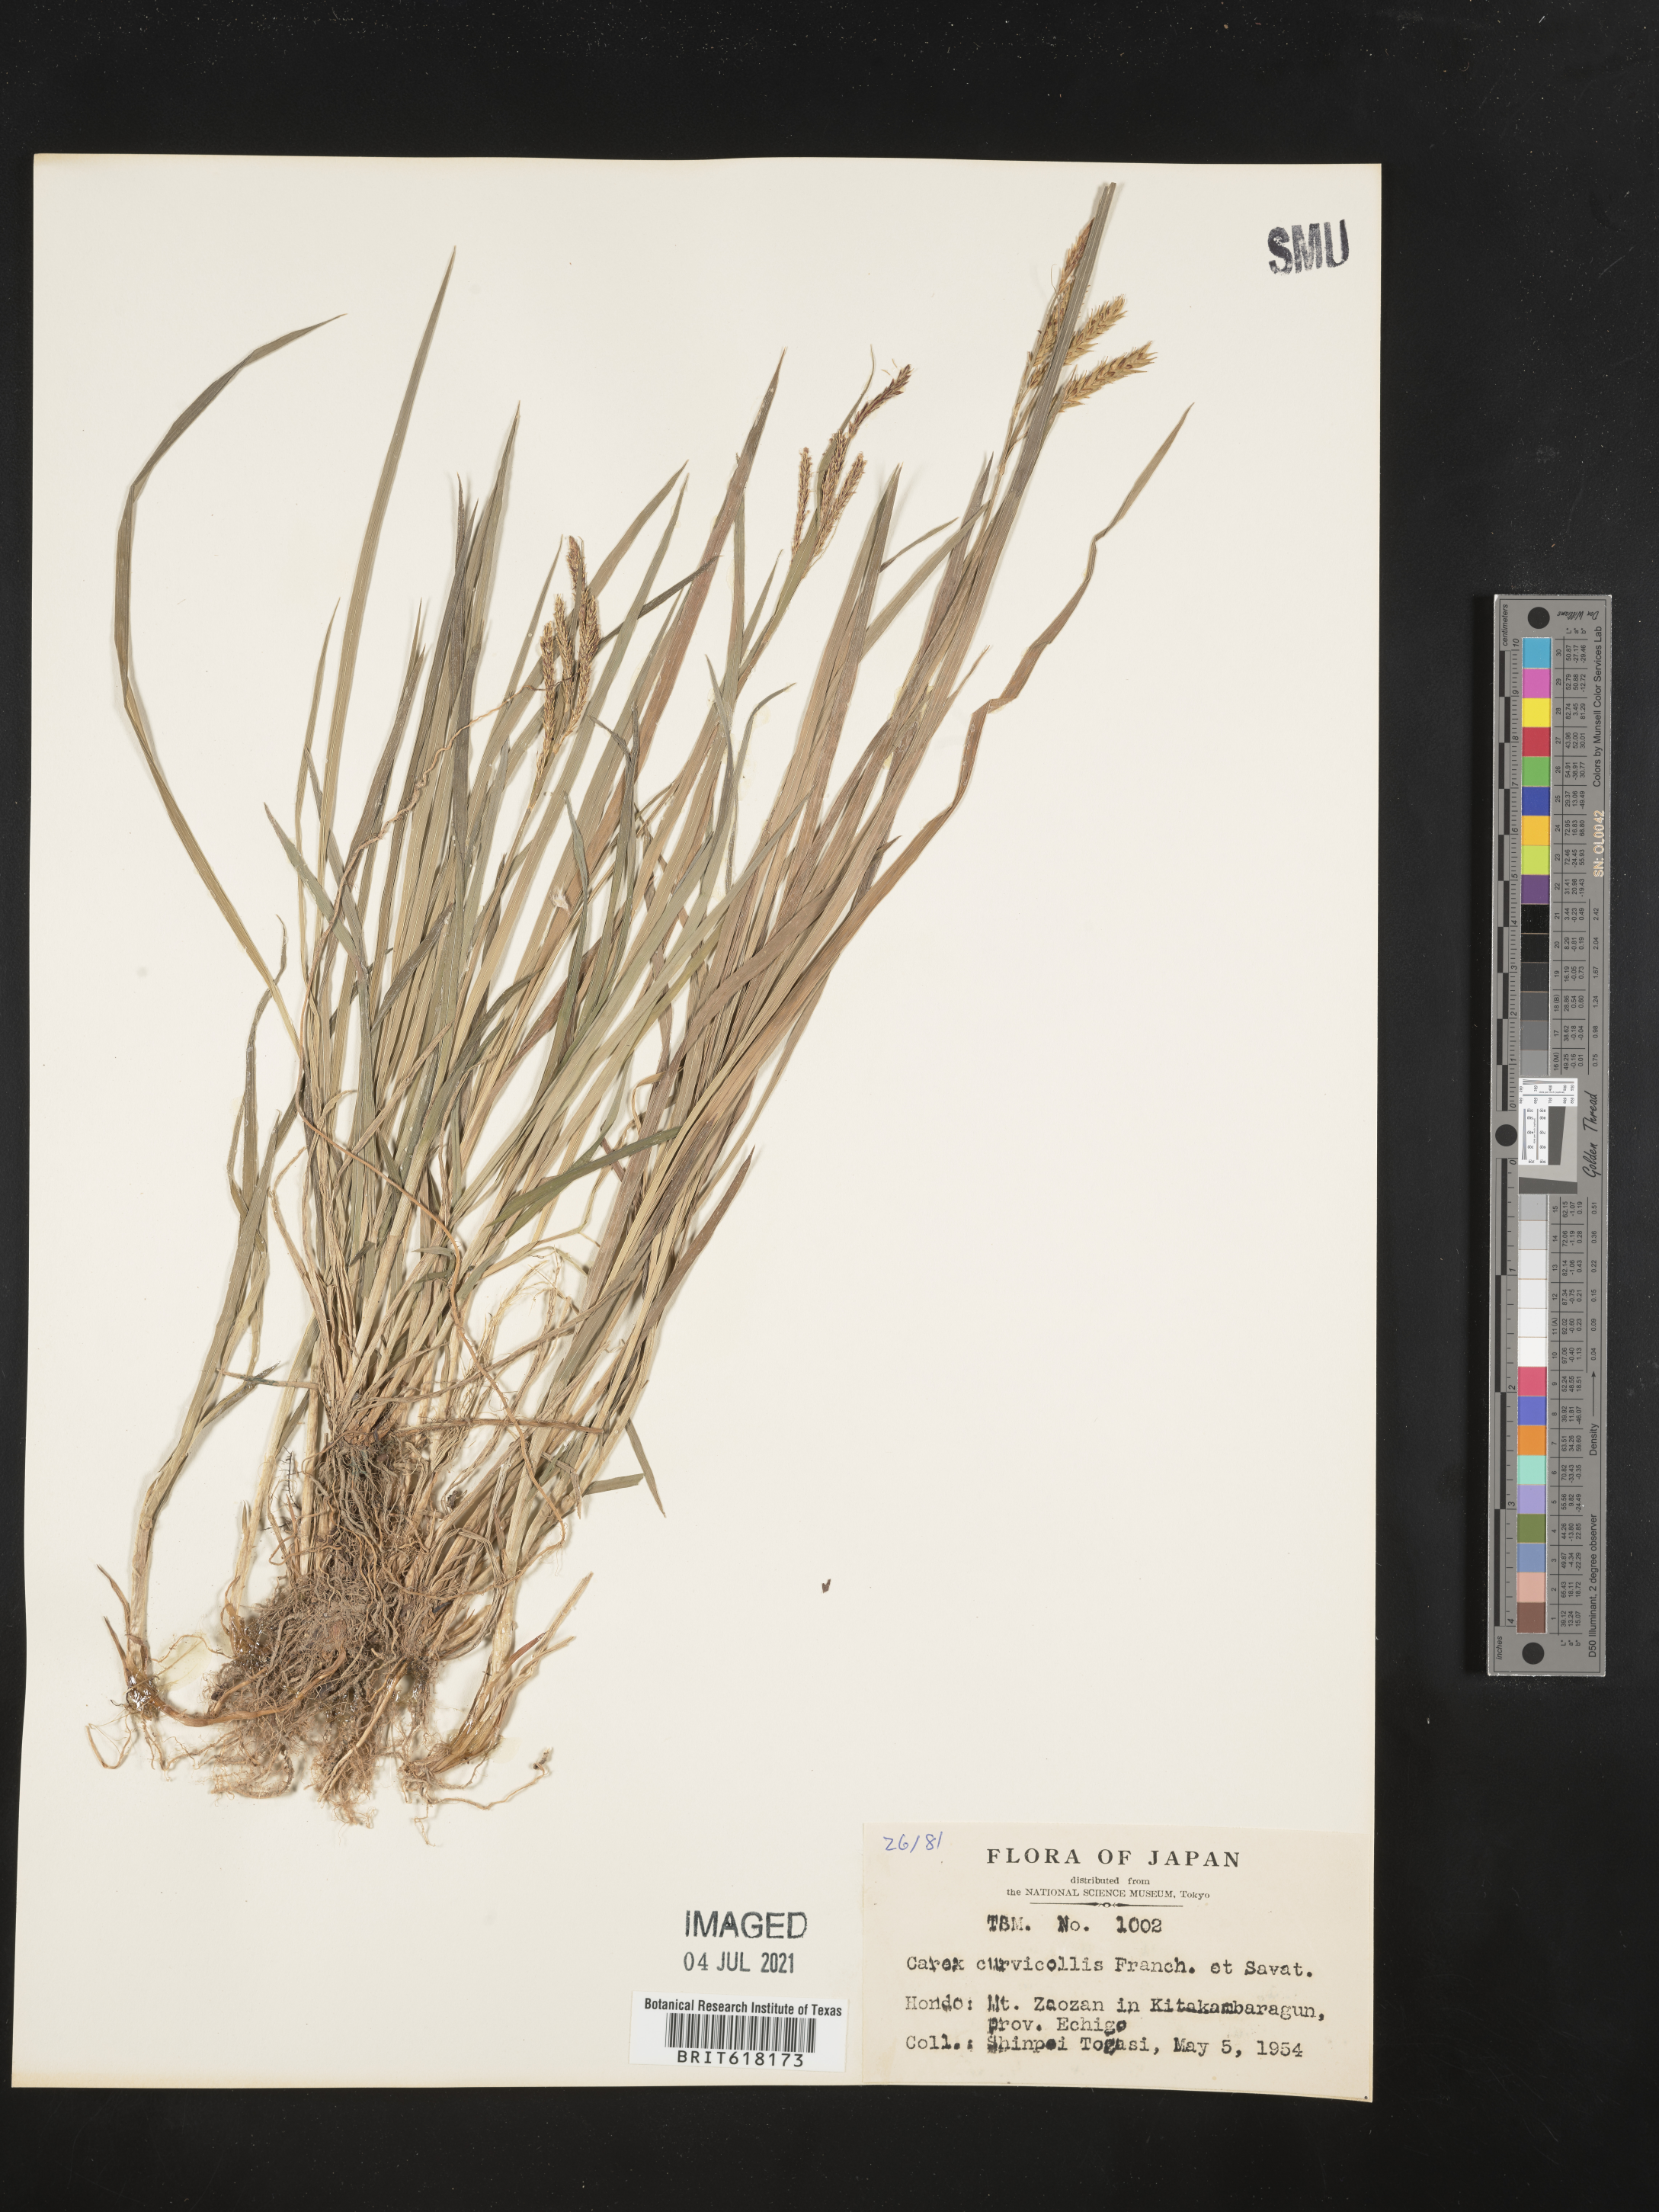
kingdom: Plantae
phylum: Tracheophyta
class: Liliopsida
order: Poales
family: Cyperaceae
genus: Carex
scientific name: Carex curvicollis
